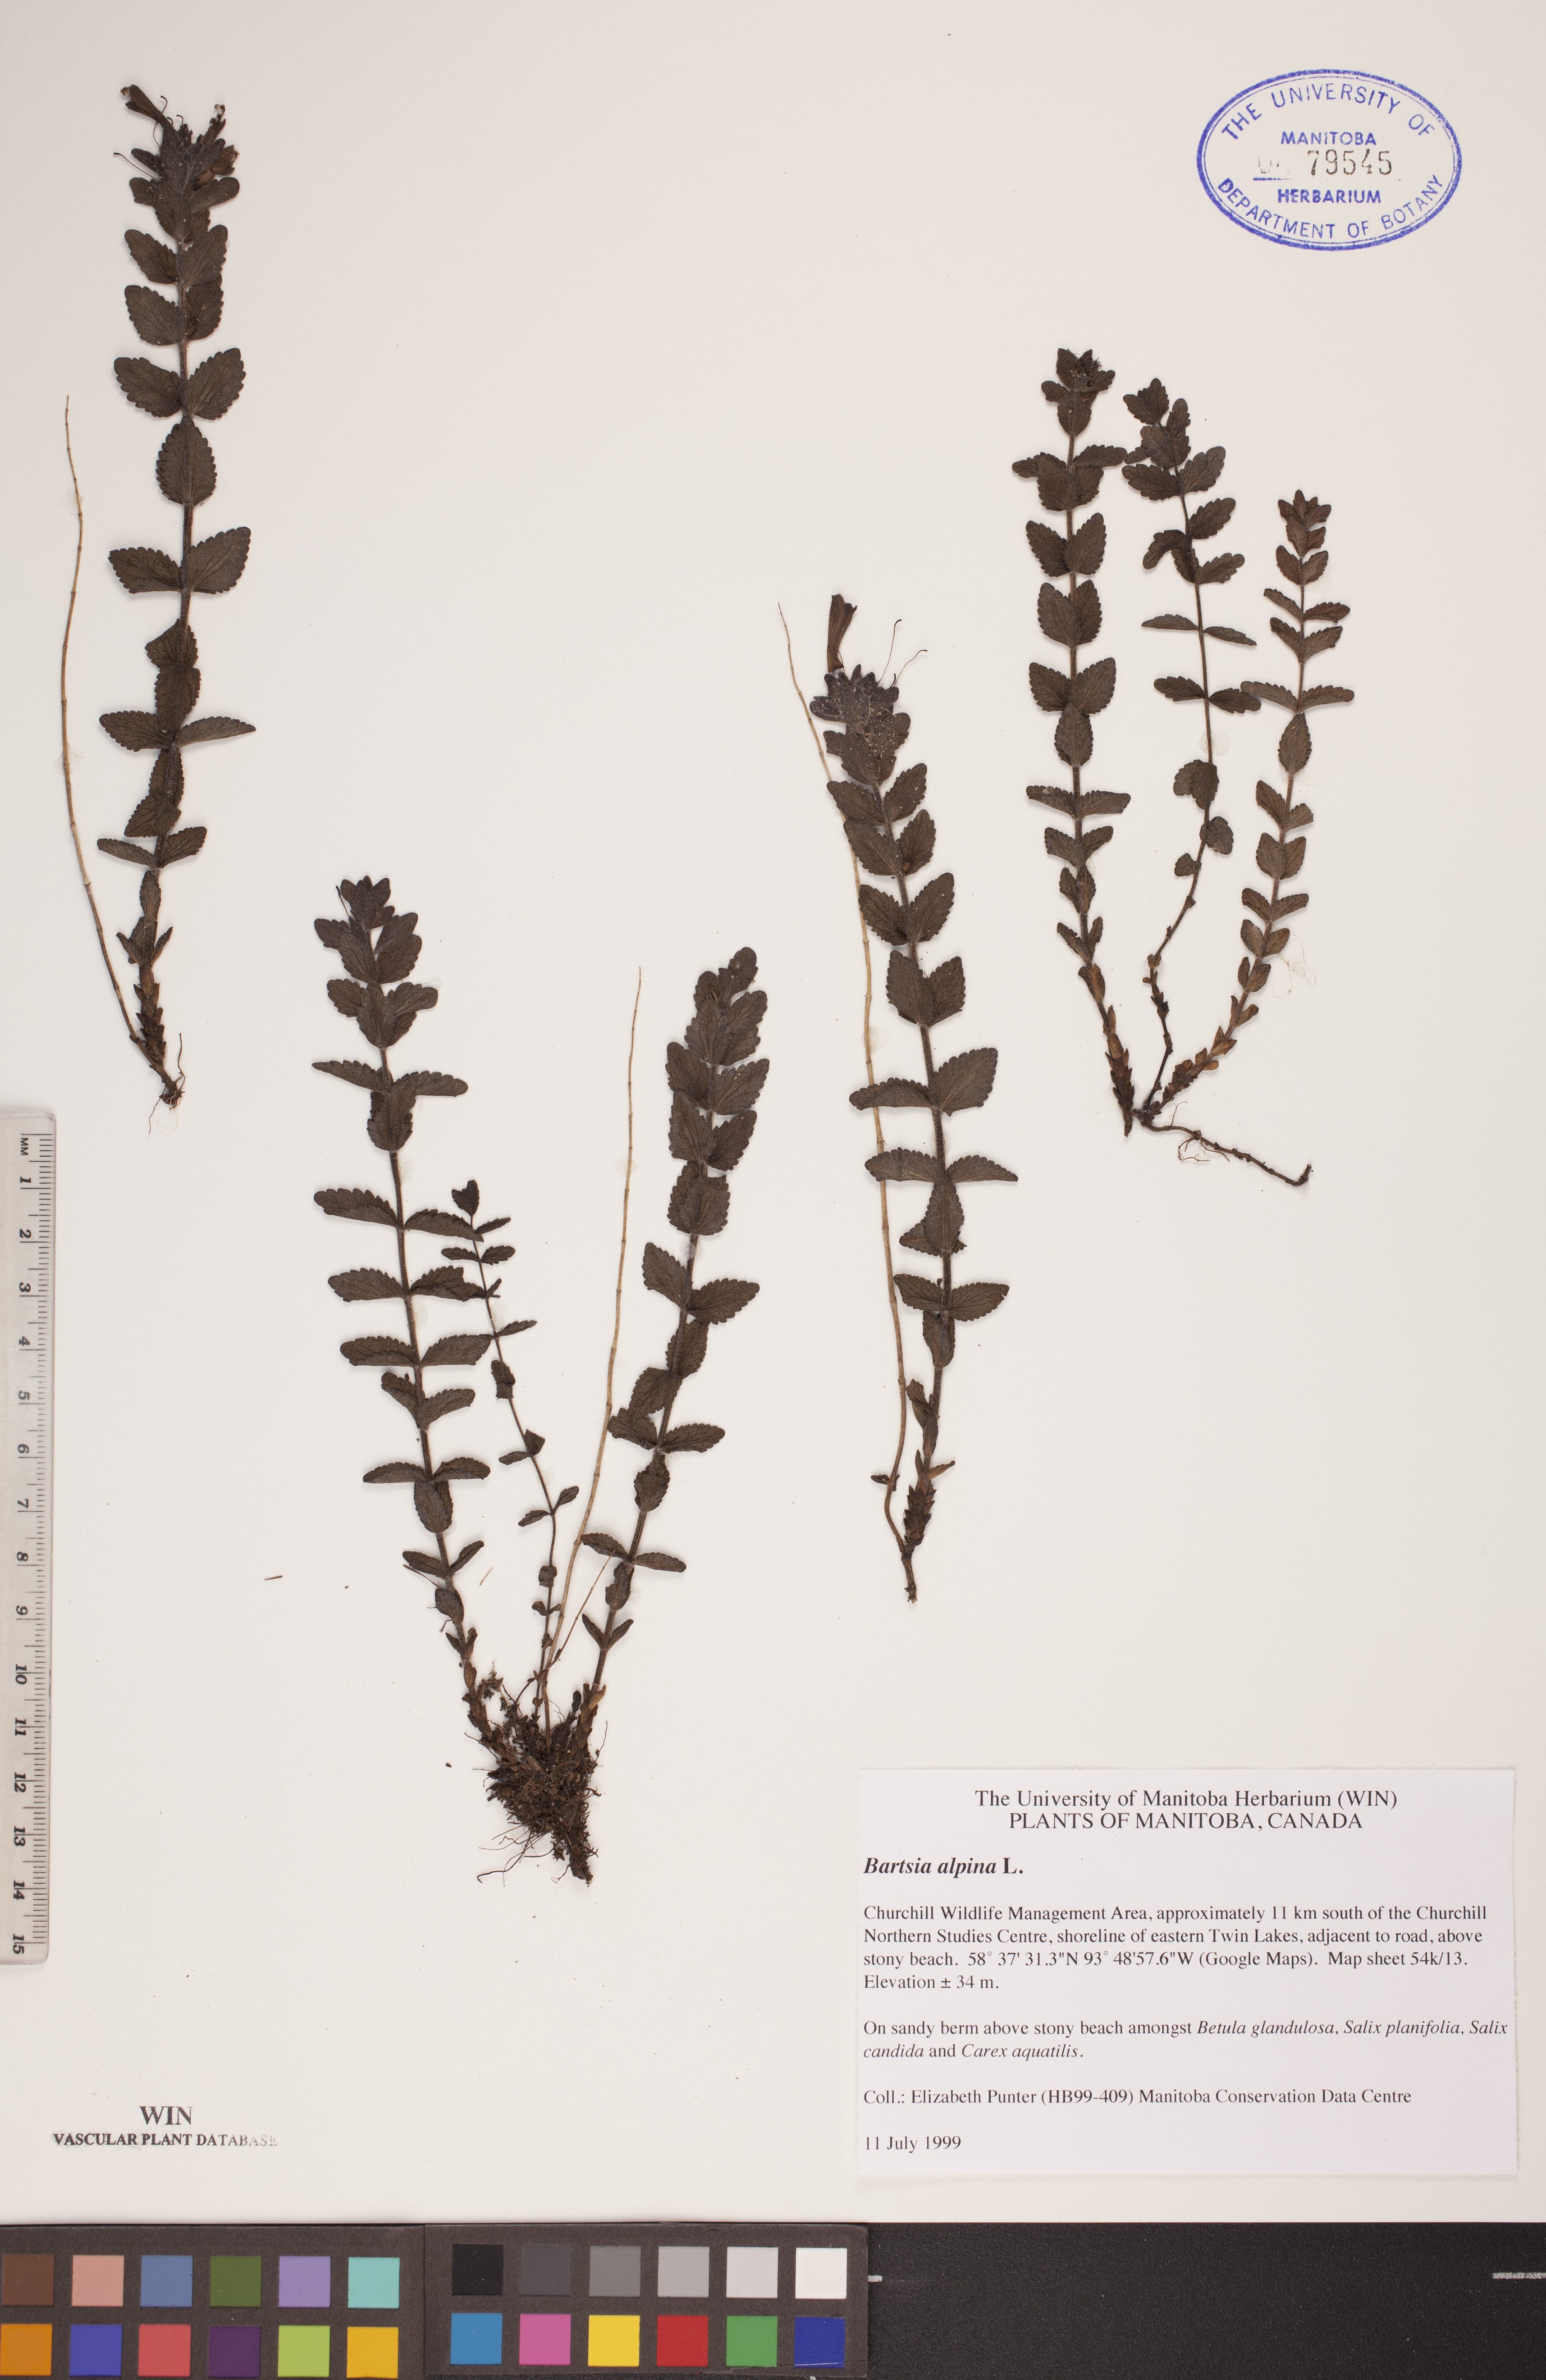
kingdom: Plantae
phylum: Tracheophyta
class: Magnoliopsida
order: Lamiales
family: Orobanchaceae
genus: Bartsia
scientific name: Bartsia alpina
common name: Alpine bartsia
